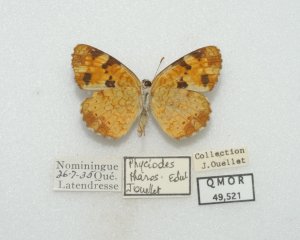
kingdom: Animalia
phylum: Arthropoda
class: Insecta
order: Lepidoptera
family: Nymphalidae
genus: Phyciodes
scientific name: Phyciodes tharos
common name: Northern Crescent
